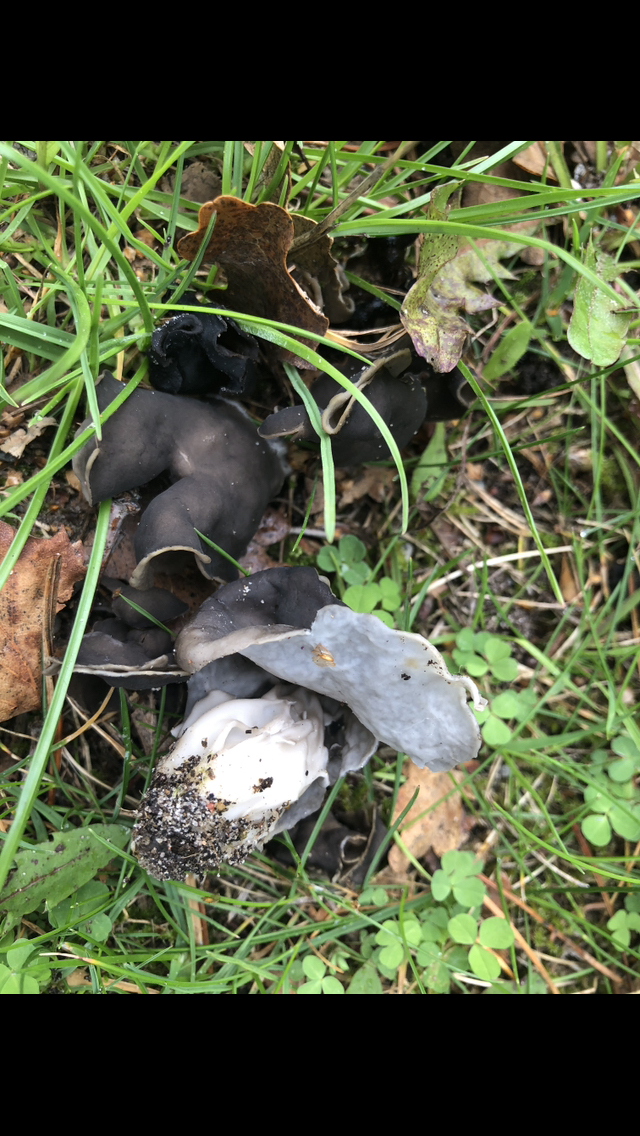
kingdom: Fungi
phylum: Ascomycota
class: Pezizomycetes
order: Pezizales
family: Helvellaceae
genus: Helvella
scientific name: Helvella lacunosa
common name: grubet foldhat
